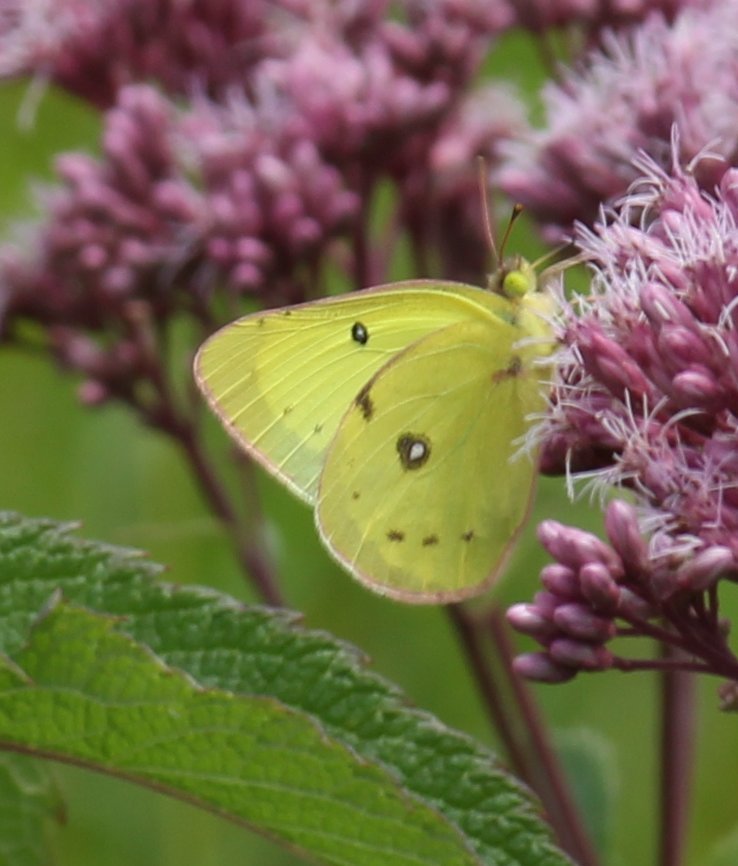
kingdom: Animalia
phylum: Arthropoda
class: Insecta
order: Lepidoptera
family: Pieridae
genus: Colias
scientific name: Colias philodice
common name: Clouded Sulphur
